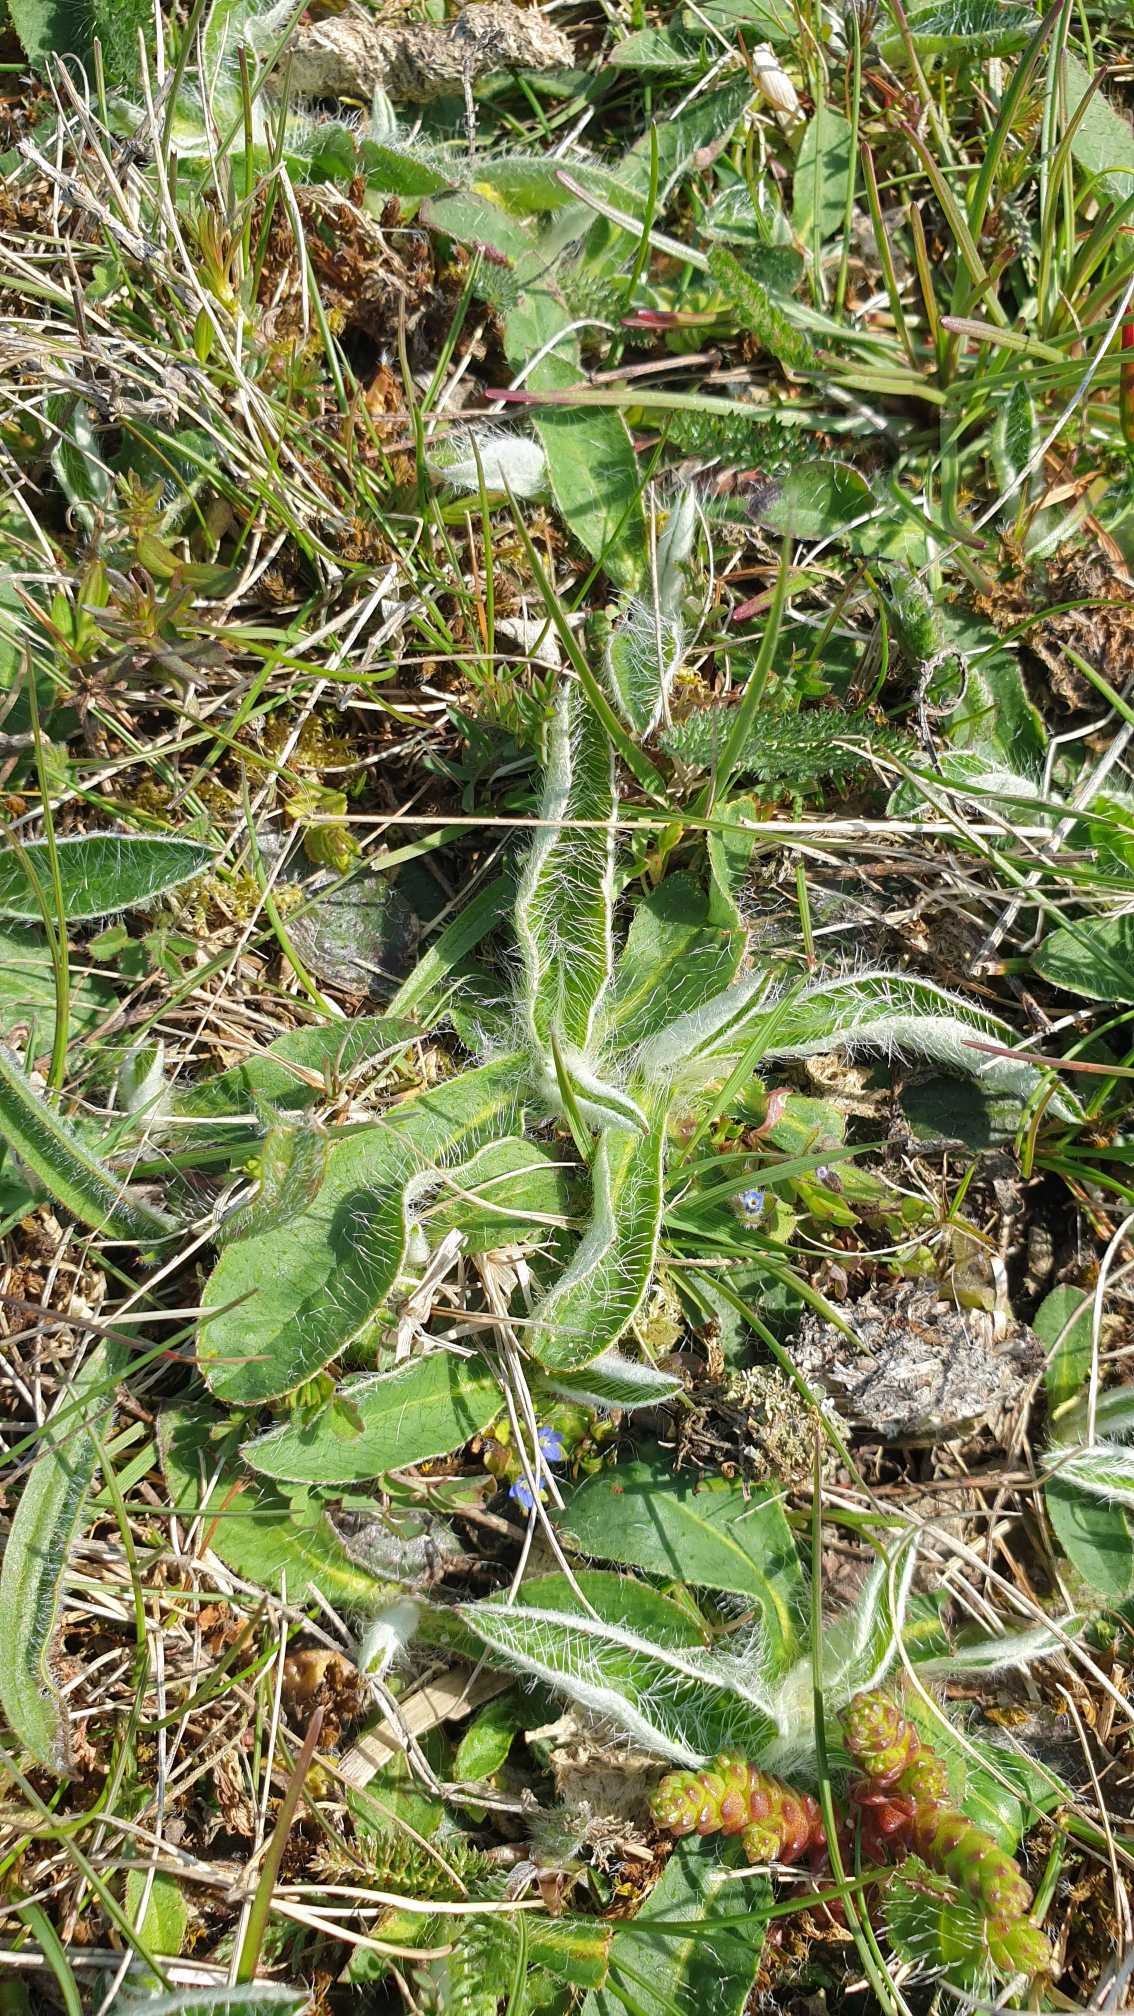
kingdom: Plantae
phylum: Tracheophyta
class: Magnoliopsida
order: Asterales
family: Asteraceae
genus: Pilosella
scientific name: Pilosella officinarum
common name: Håret høgeurt
